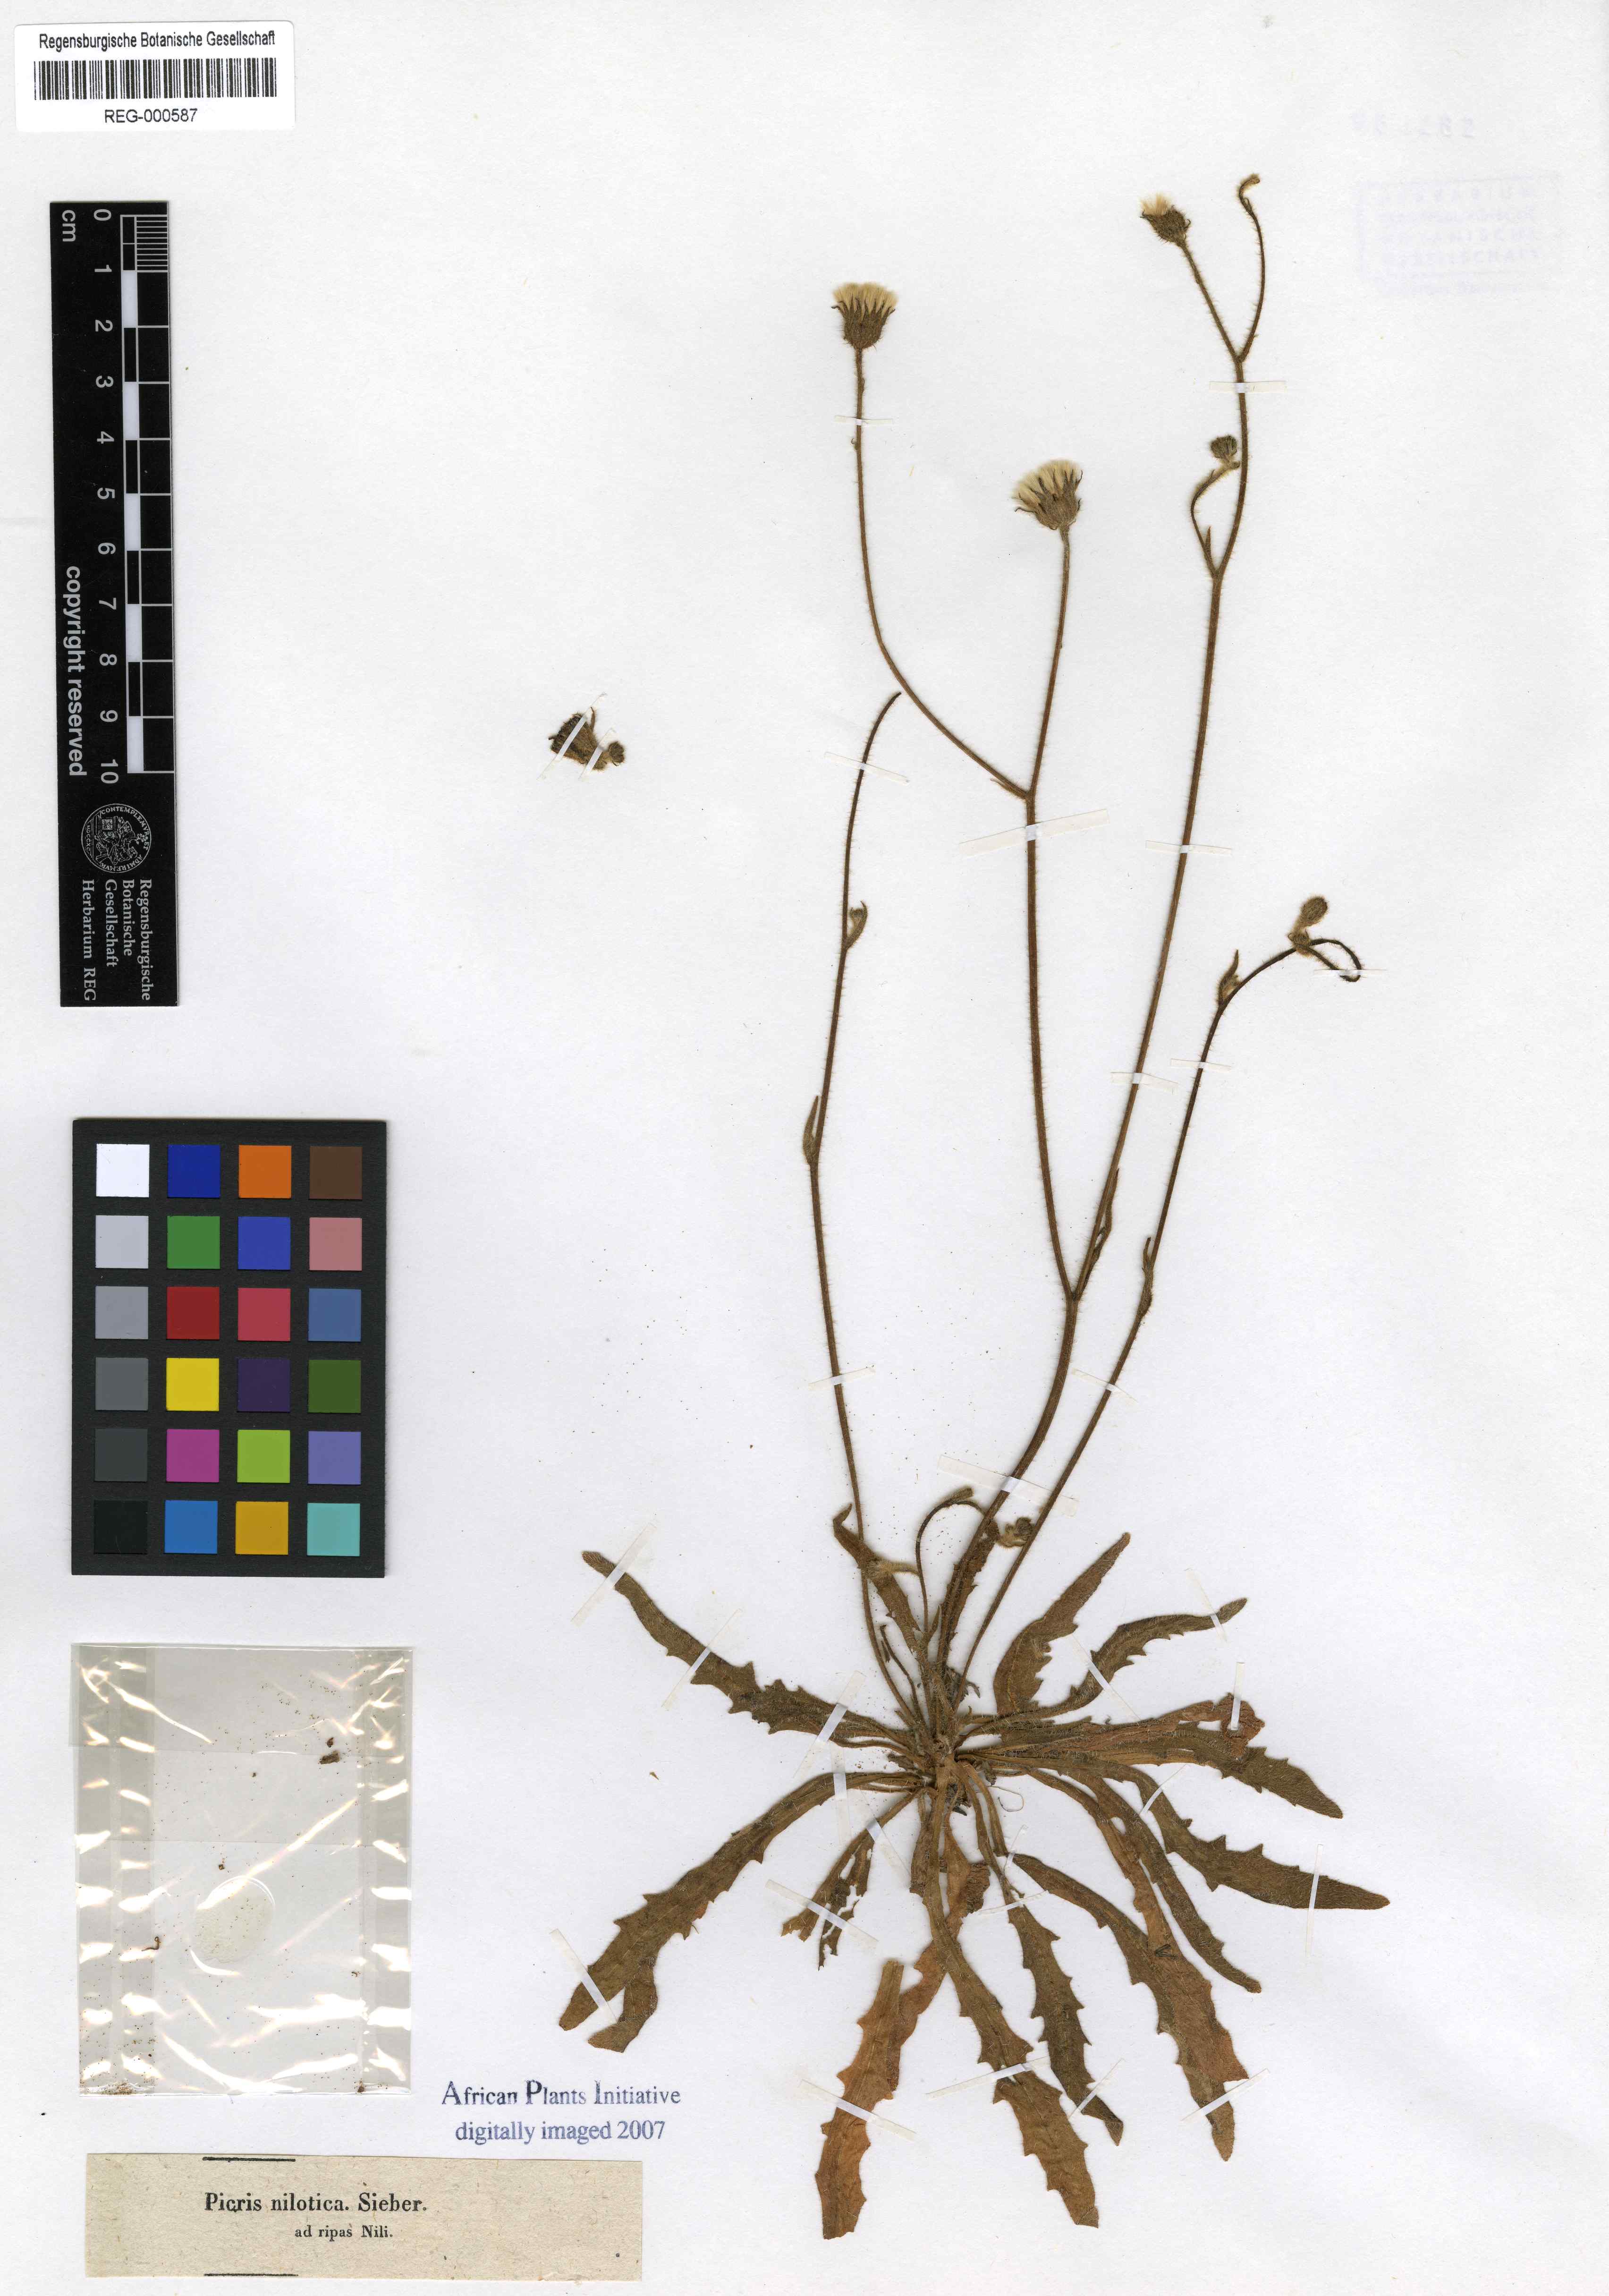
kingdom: Plantae
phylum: Tracheophyta
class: Magnoliopsida
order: Asterales
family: Asteraceae
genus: Picris
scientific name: Picris sulphurea
